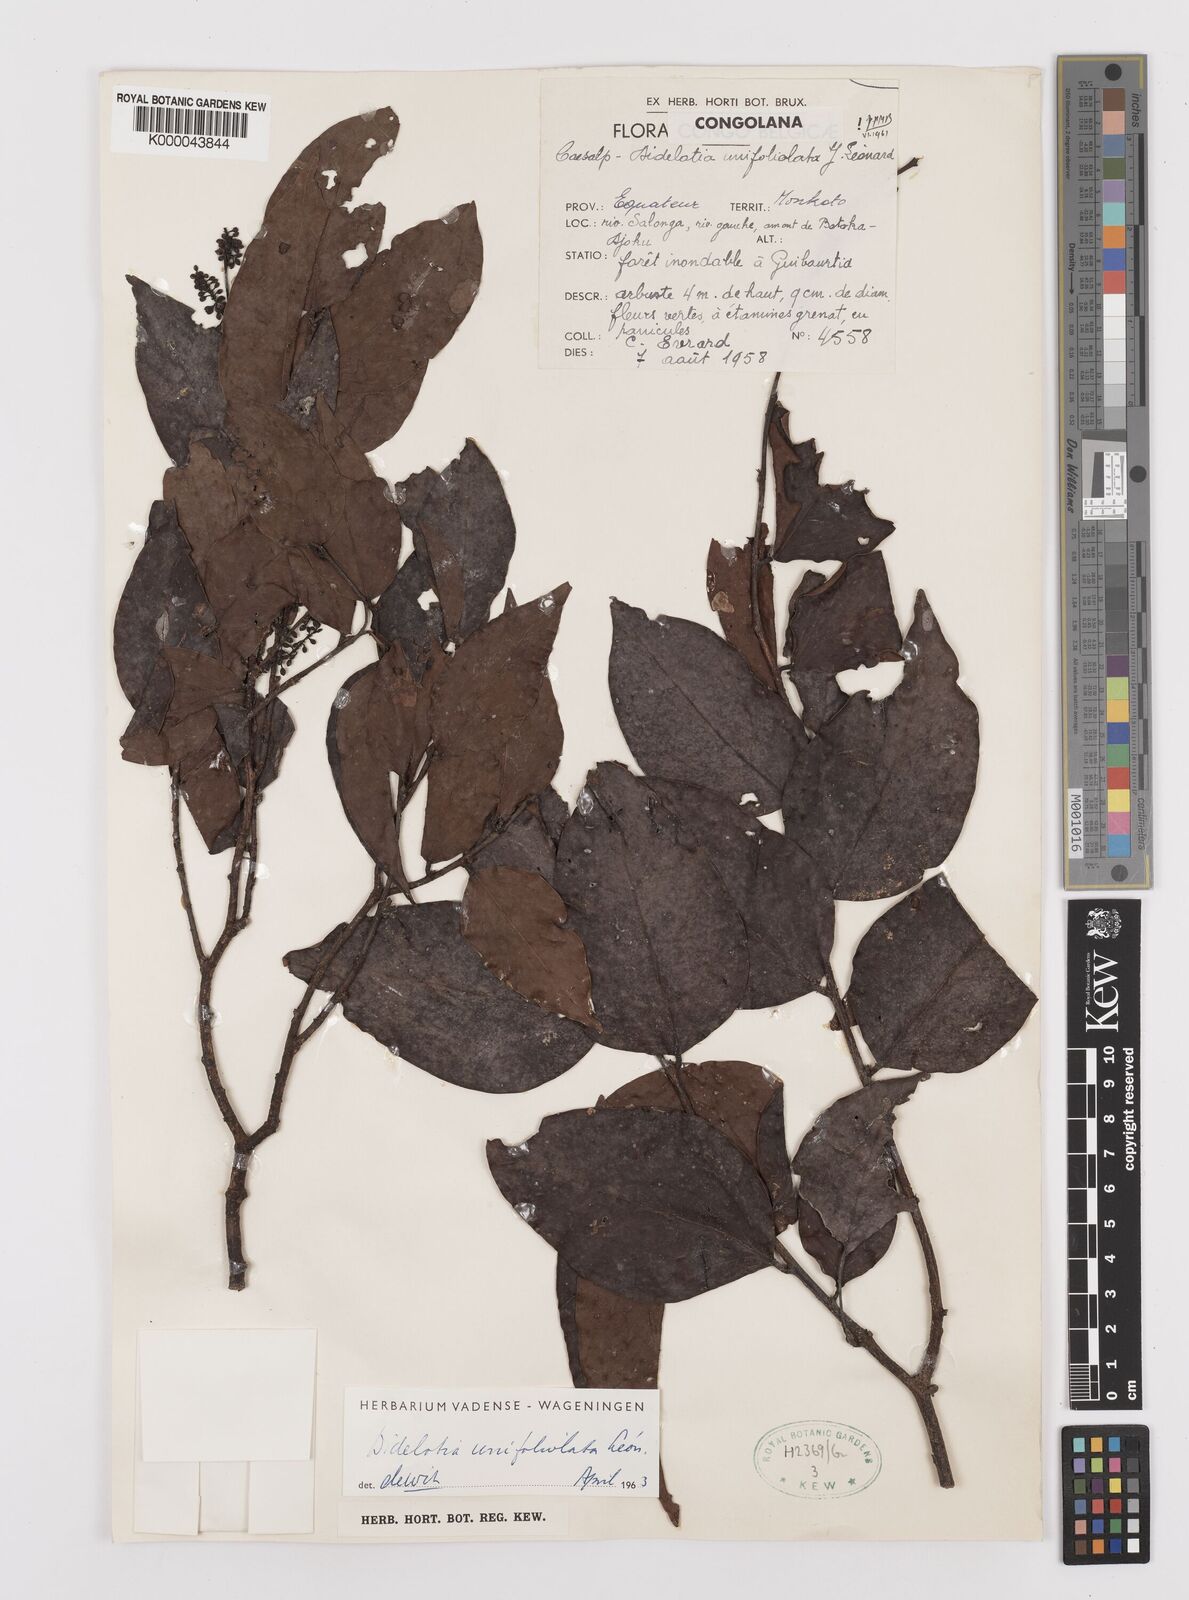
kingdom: Plantae
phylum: Tracheophyta
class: Magnoliopsida
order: Fabales
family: Fabaceae
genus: Didelotia
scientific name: Didelotia
